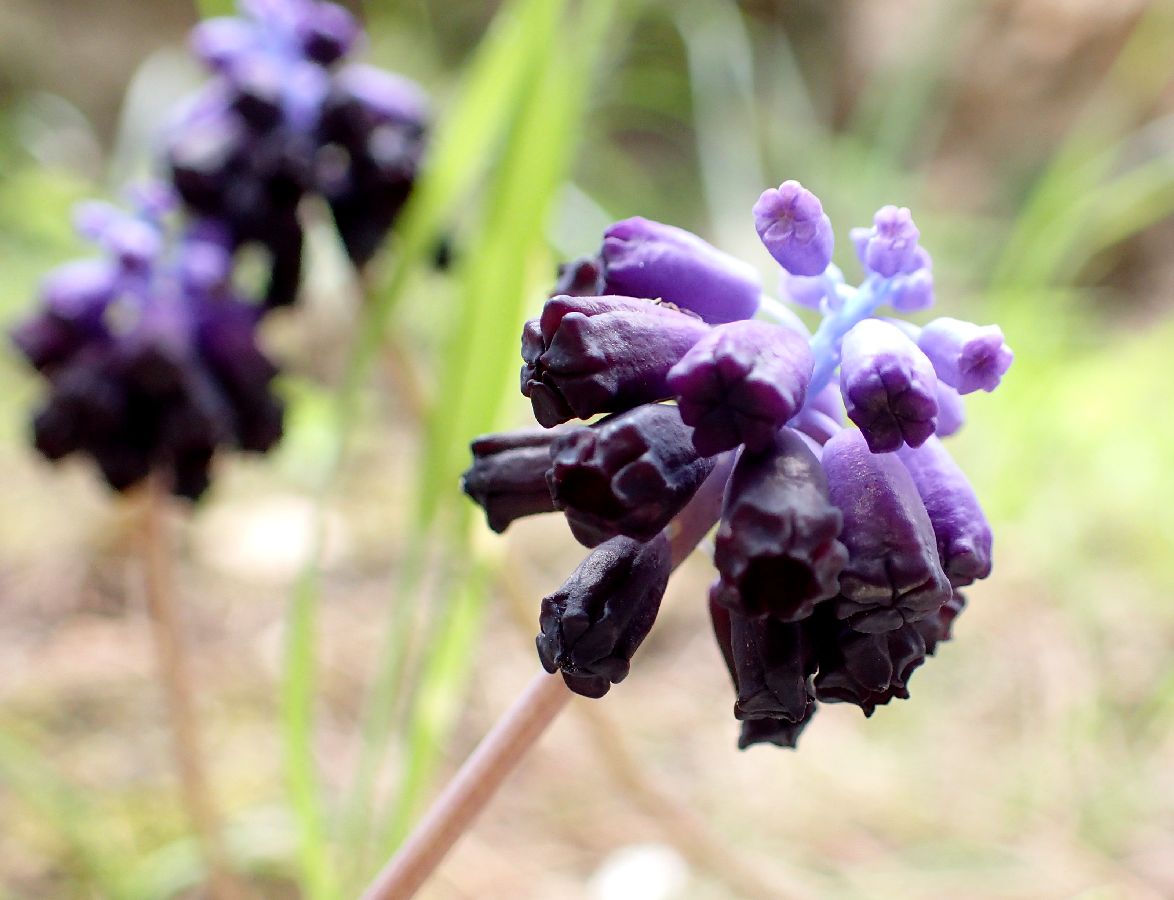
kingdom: Plantae
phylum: Tracheophyta
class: Liliopsida
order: Asparagales
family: Asparagaceae
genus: Muscari
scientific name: Muscari commutatum
